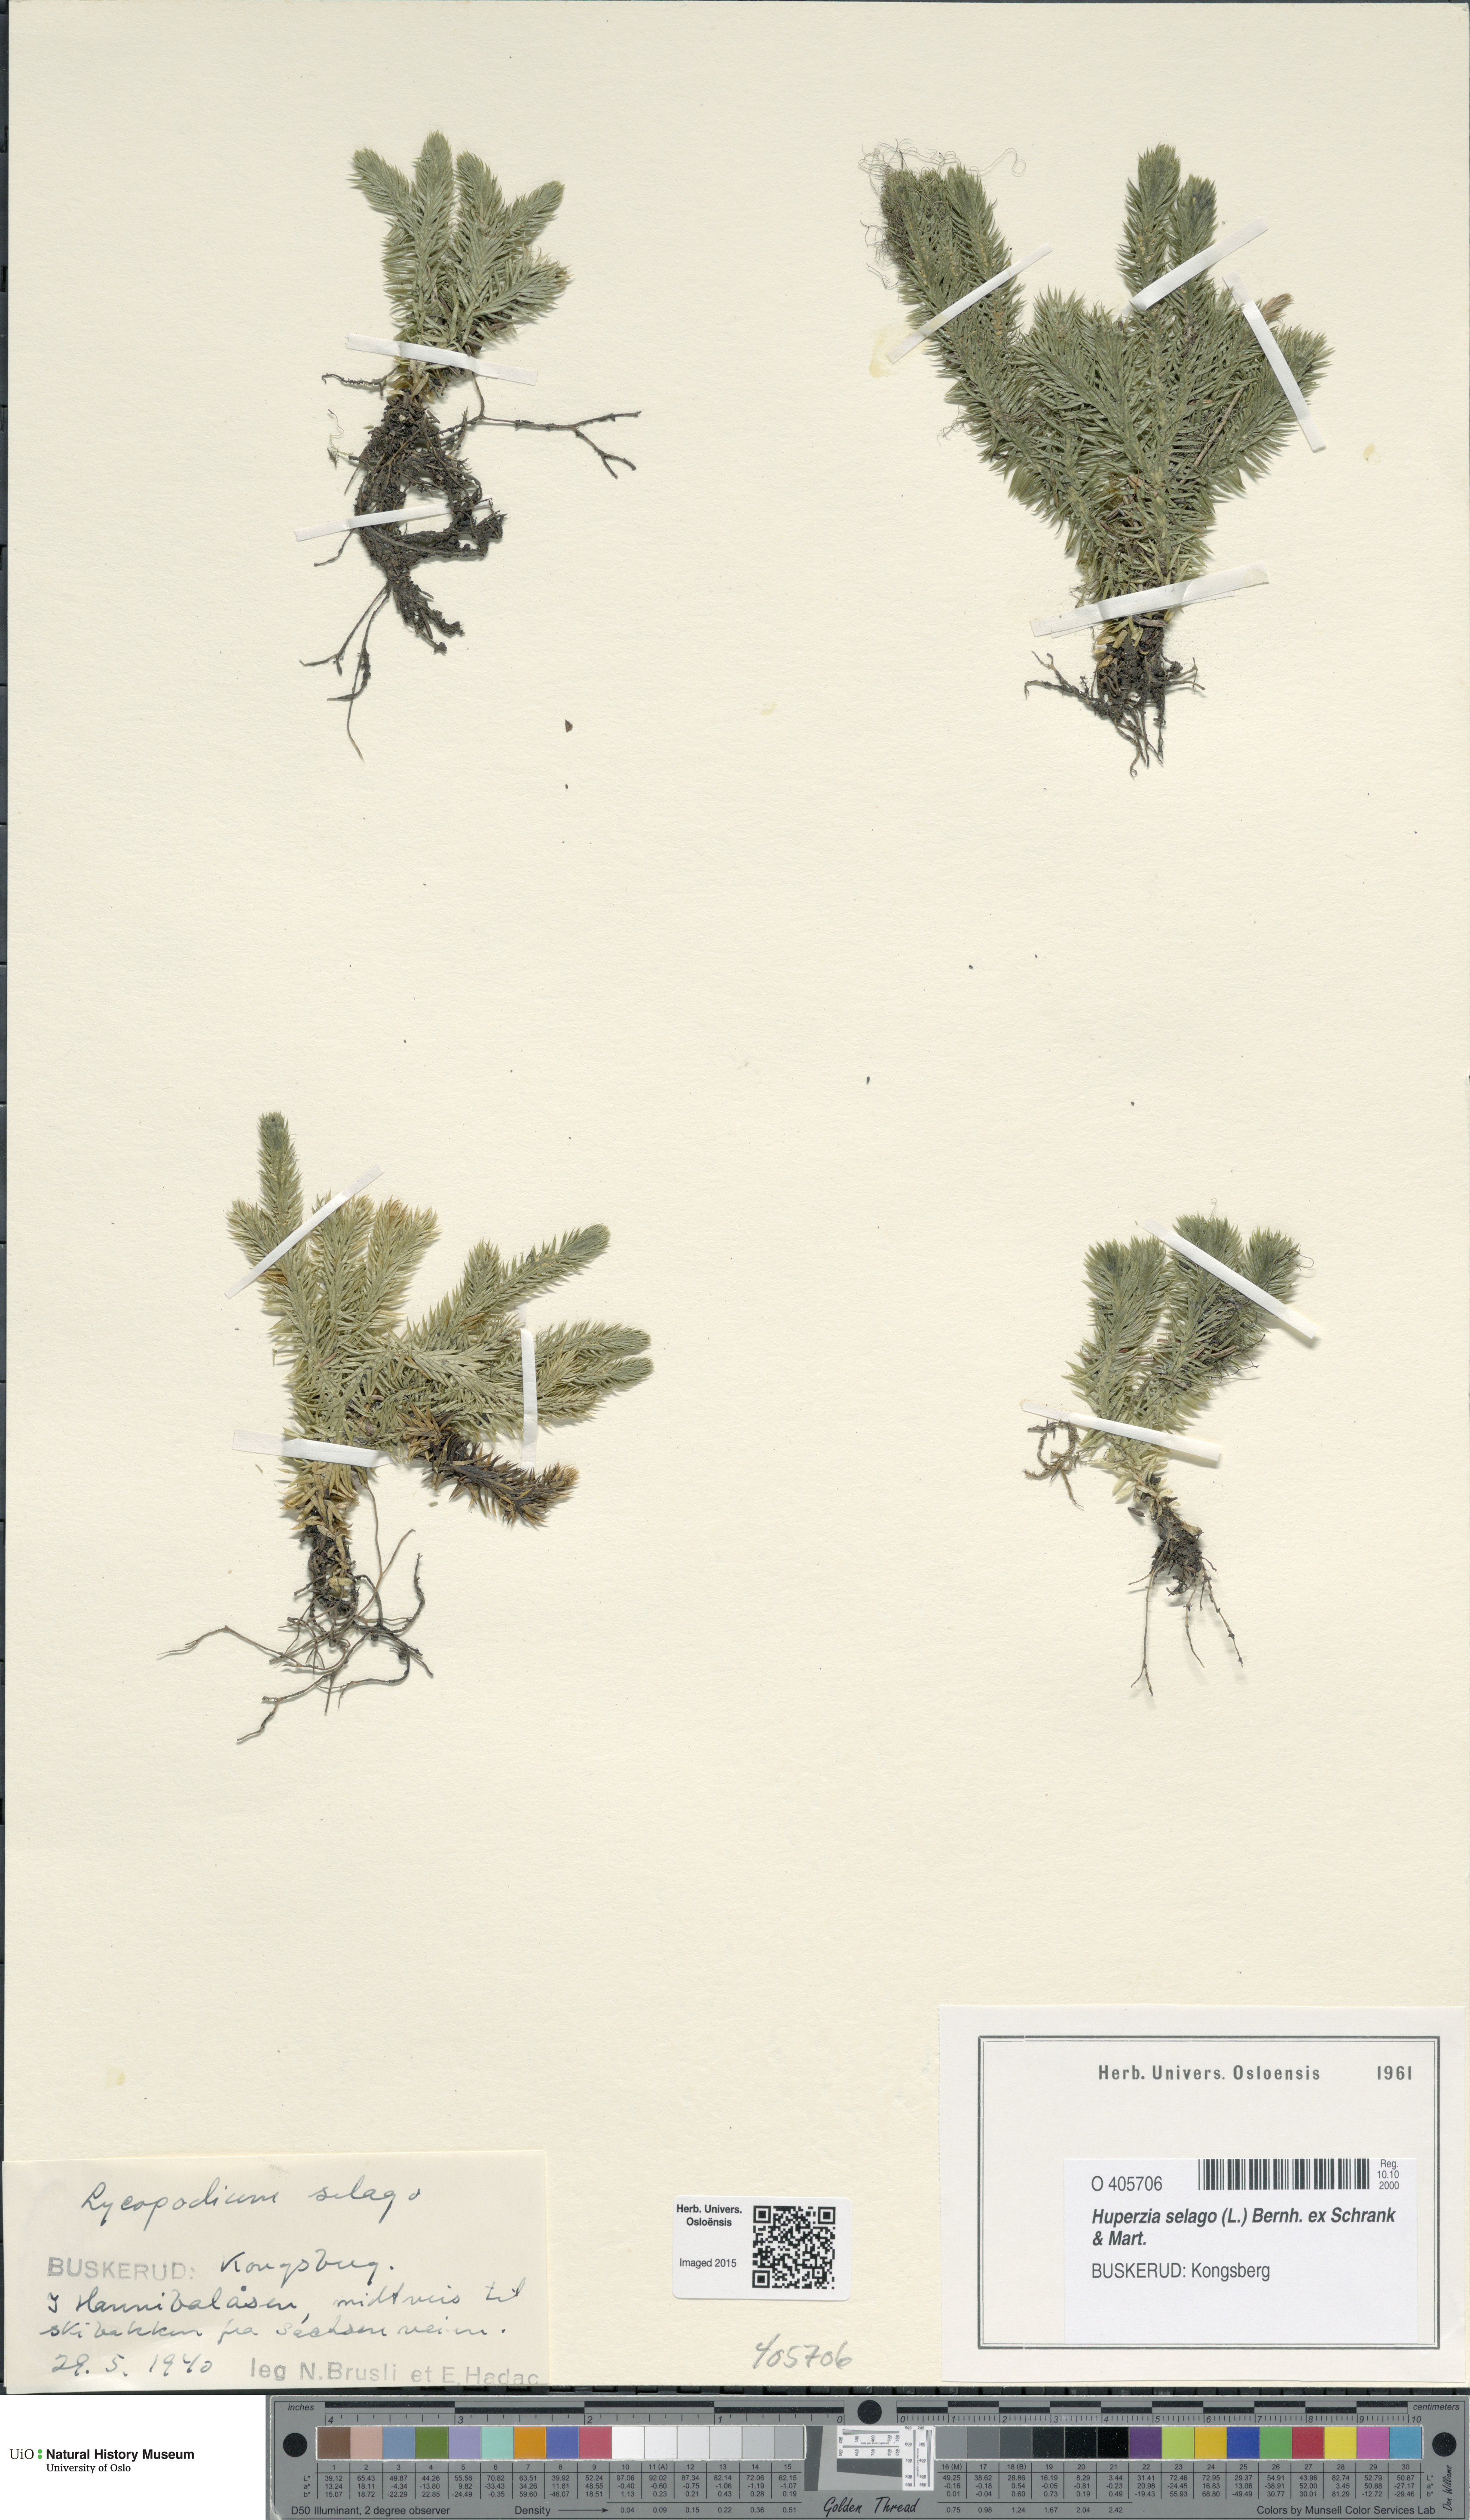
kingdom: Plantae
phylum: Tracheophyta
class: Lycopodiopsida
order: Lycopodiales
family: Lycopodiaceae
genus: Huperzia
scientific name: Huperzia selago
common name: Northern firmoss
